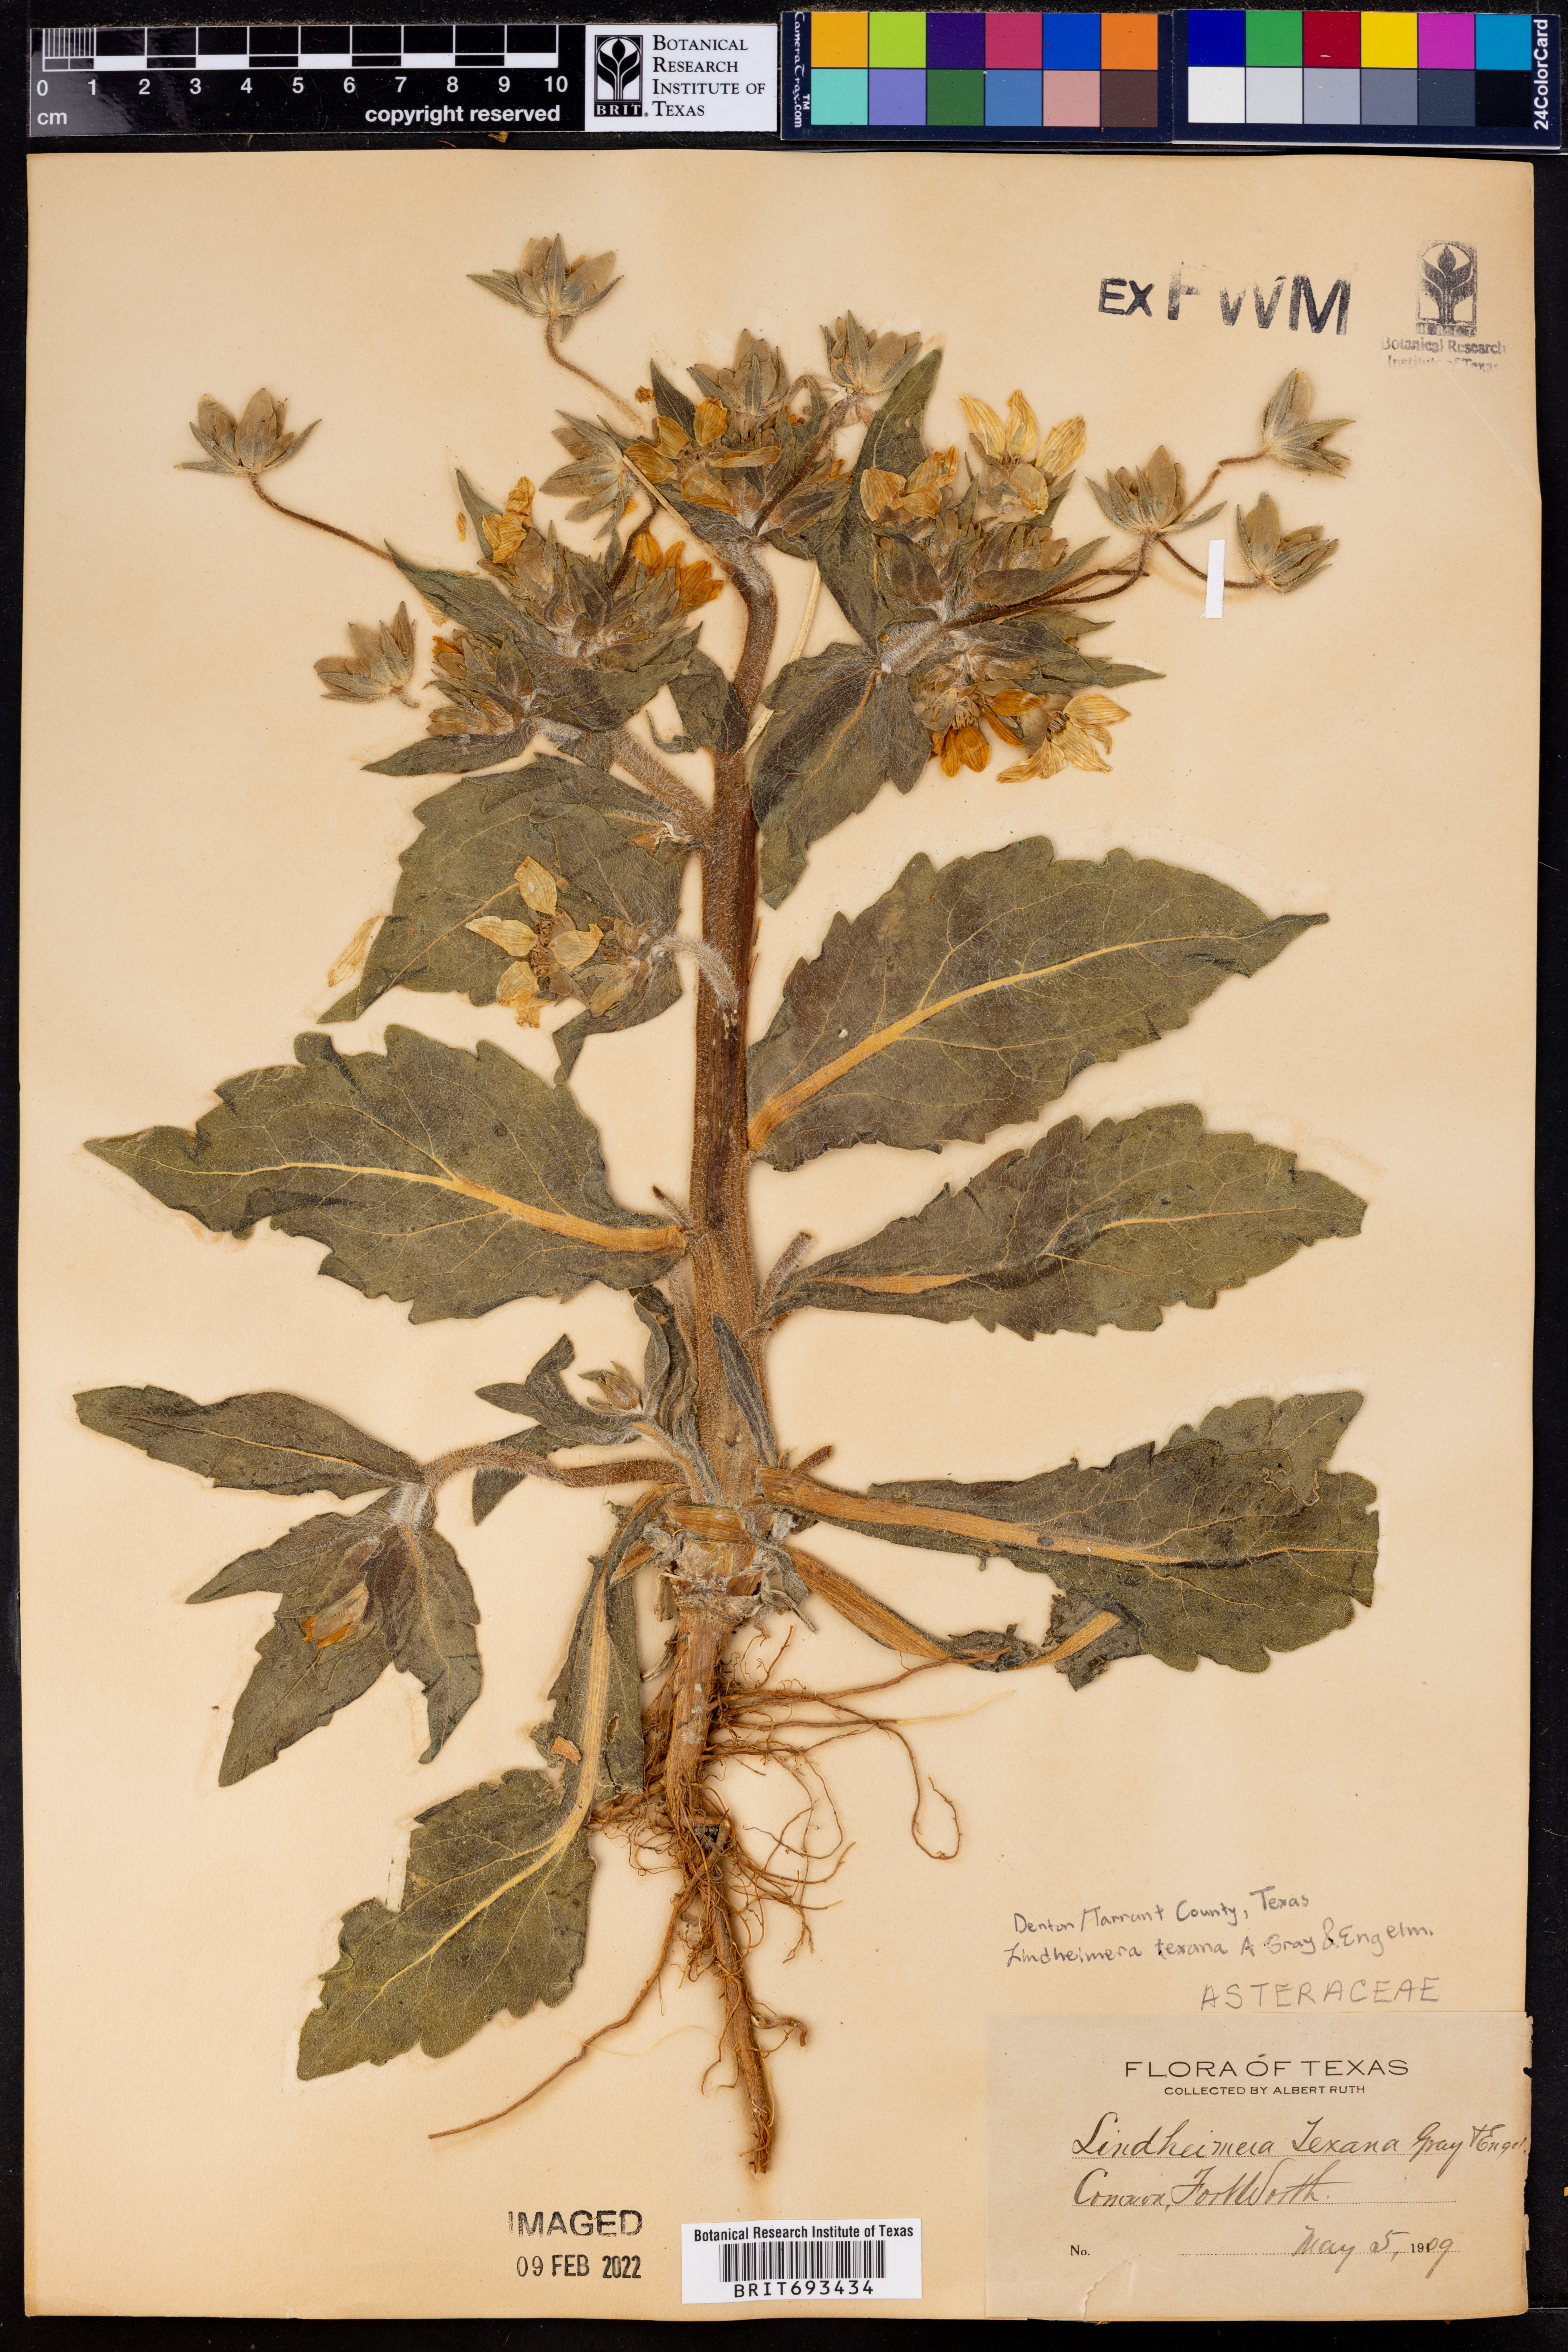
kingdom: Plantae
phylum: Tracheophyta
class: Magnoliopsida
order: Asterales
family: Asteraceae
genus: Lindheimera
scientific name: Lindheimera texana
